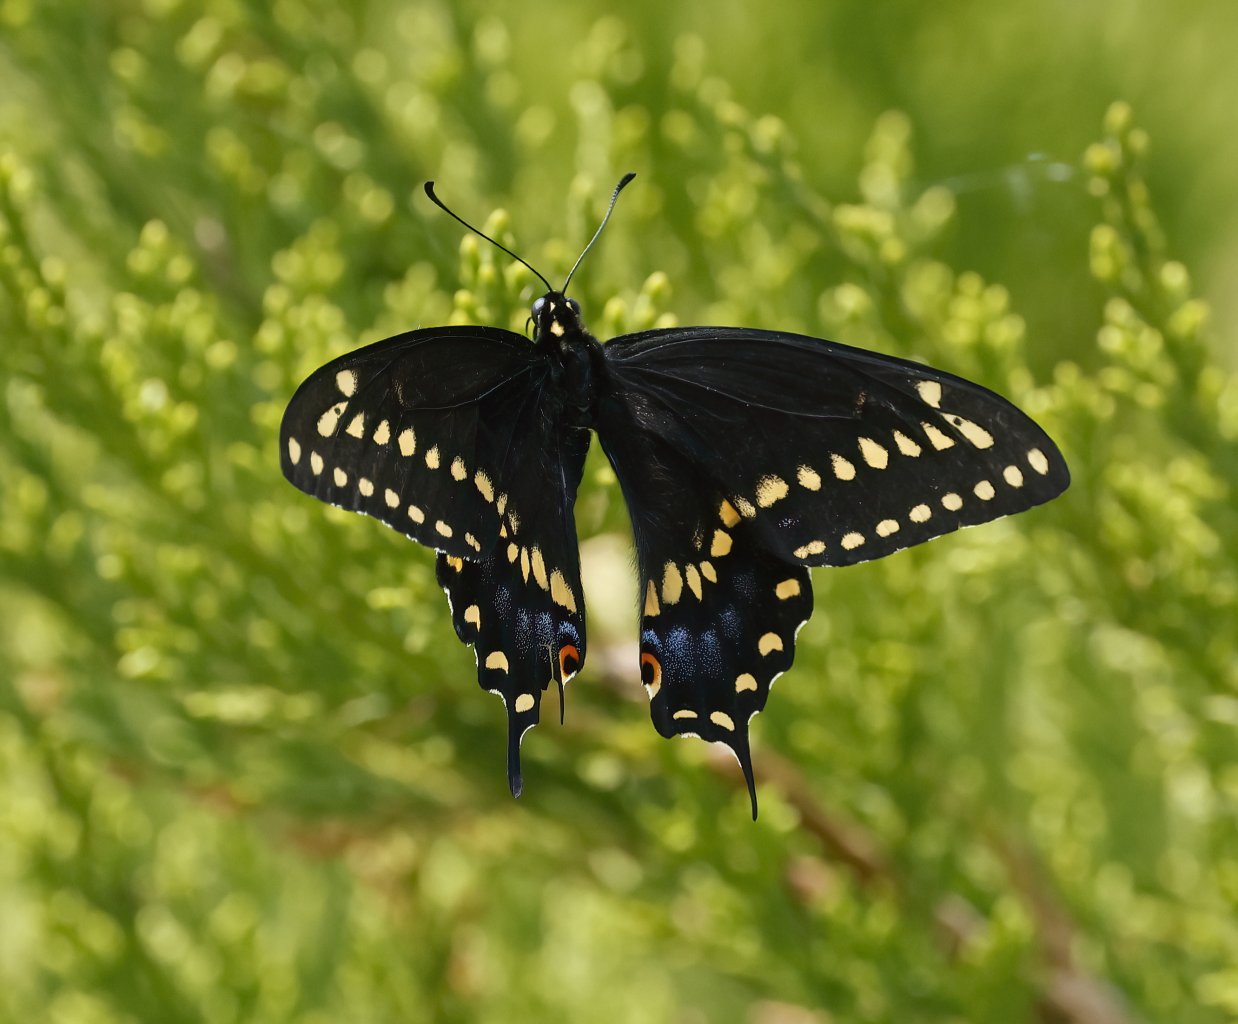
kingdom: Animalia
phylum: Arthropoda
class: Insecta
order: Lepidoptera
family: Papilionidae
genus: Papilio
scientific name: Papilio polyxenes
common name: Black Swallowtail
